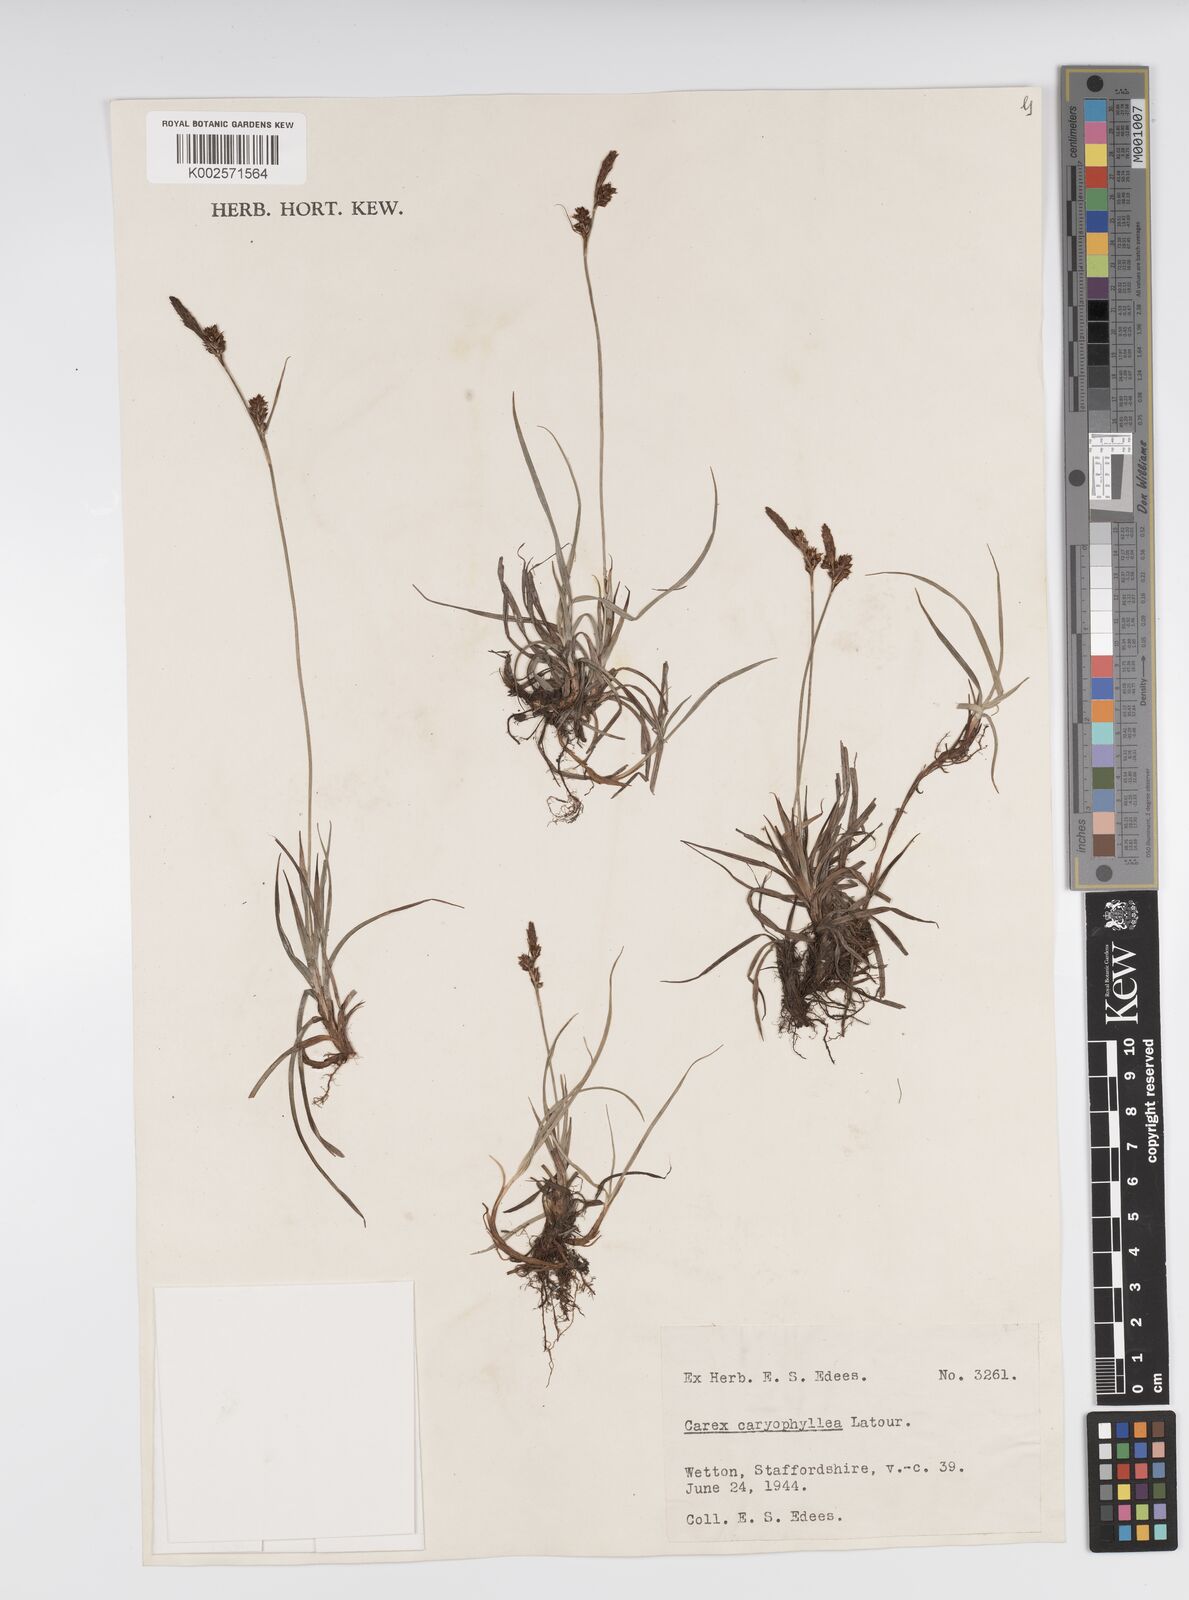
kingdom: Plantae
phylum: Tracheophyta
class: Liliopsida
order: Poales
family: Cyperaceae
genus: Carex
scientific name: Carex caryophyllea
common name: Spring sedge
